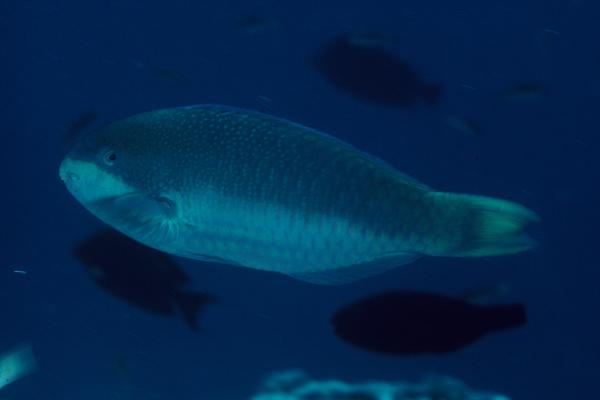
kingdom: Animalia
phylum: Chordata
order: Perciformes
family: Scaridae
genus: Scarus
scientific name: Scarus globiceps
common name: Globehead parrotfish
